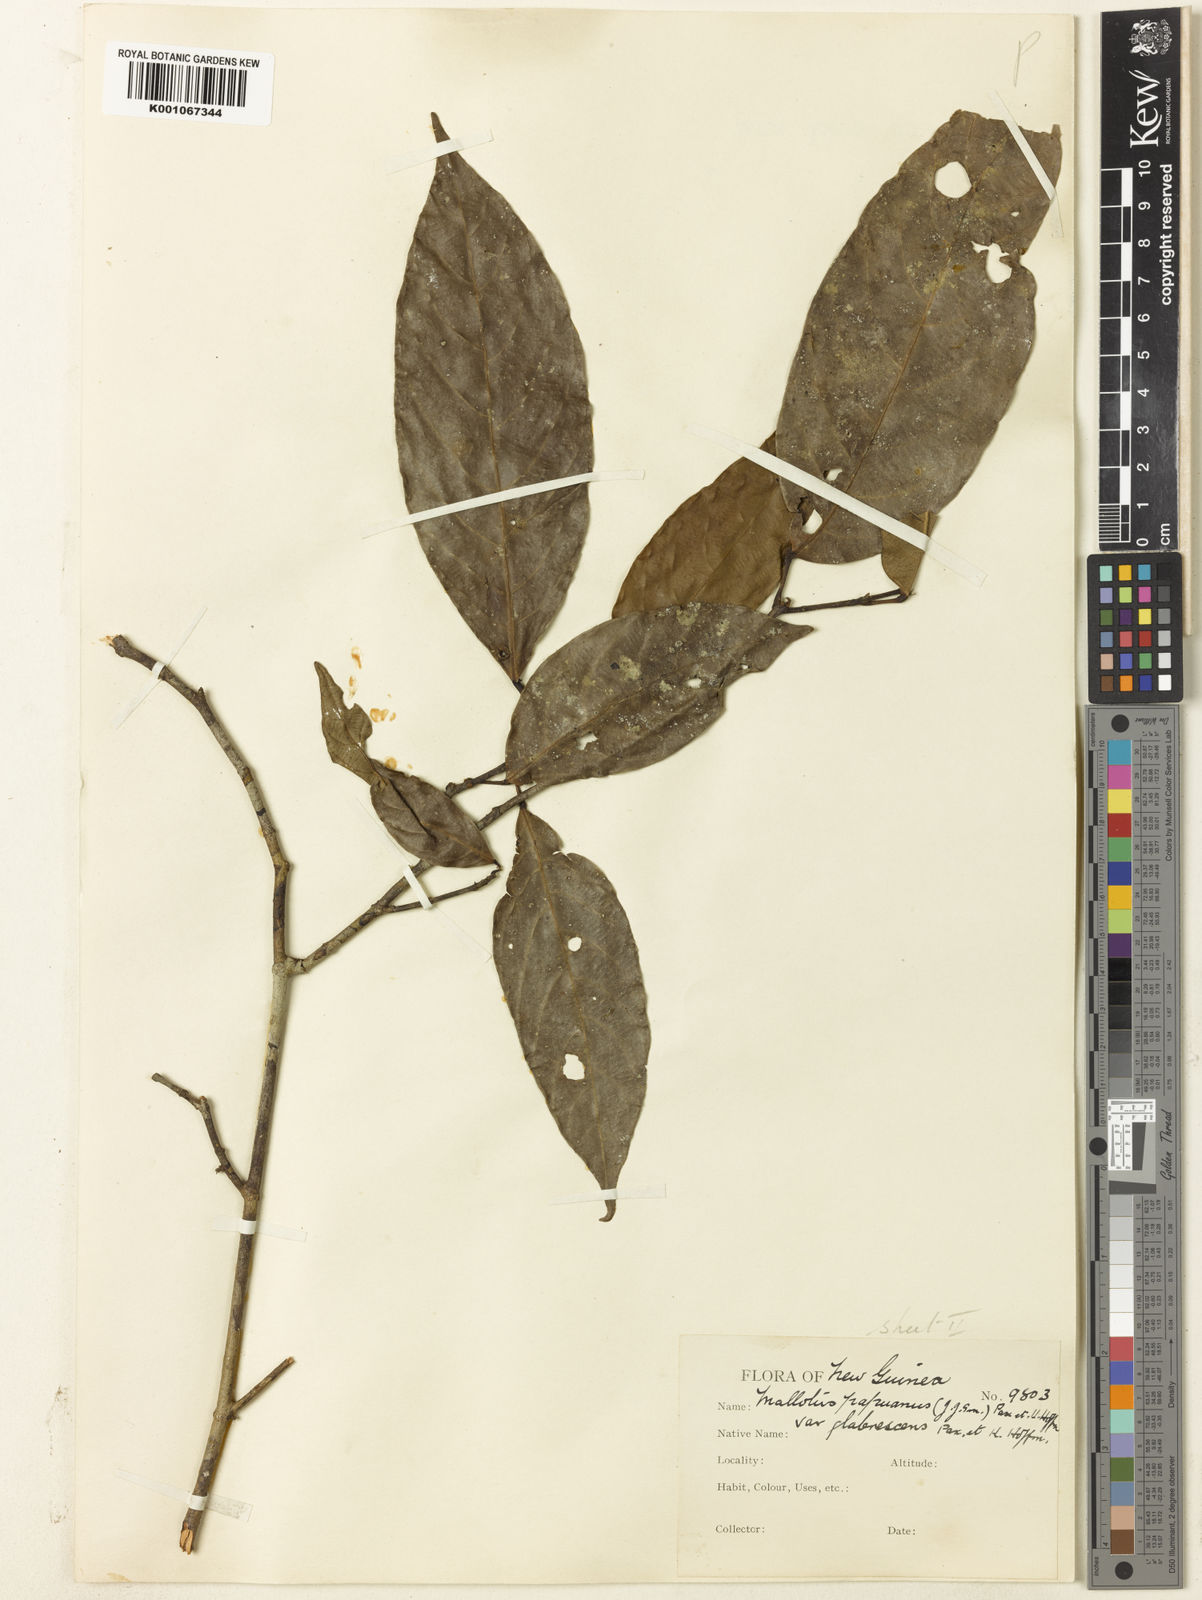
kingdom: Plantae
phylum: Tracheophyta
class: Magnoliopsida
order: Malpighiales
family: Euphorbiaceae
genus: Hancea
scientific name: Hancea papuana
